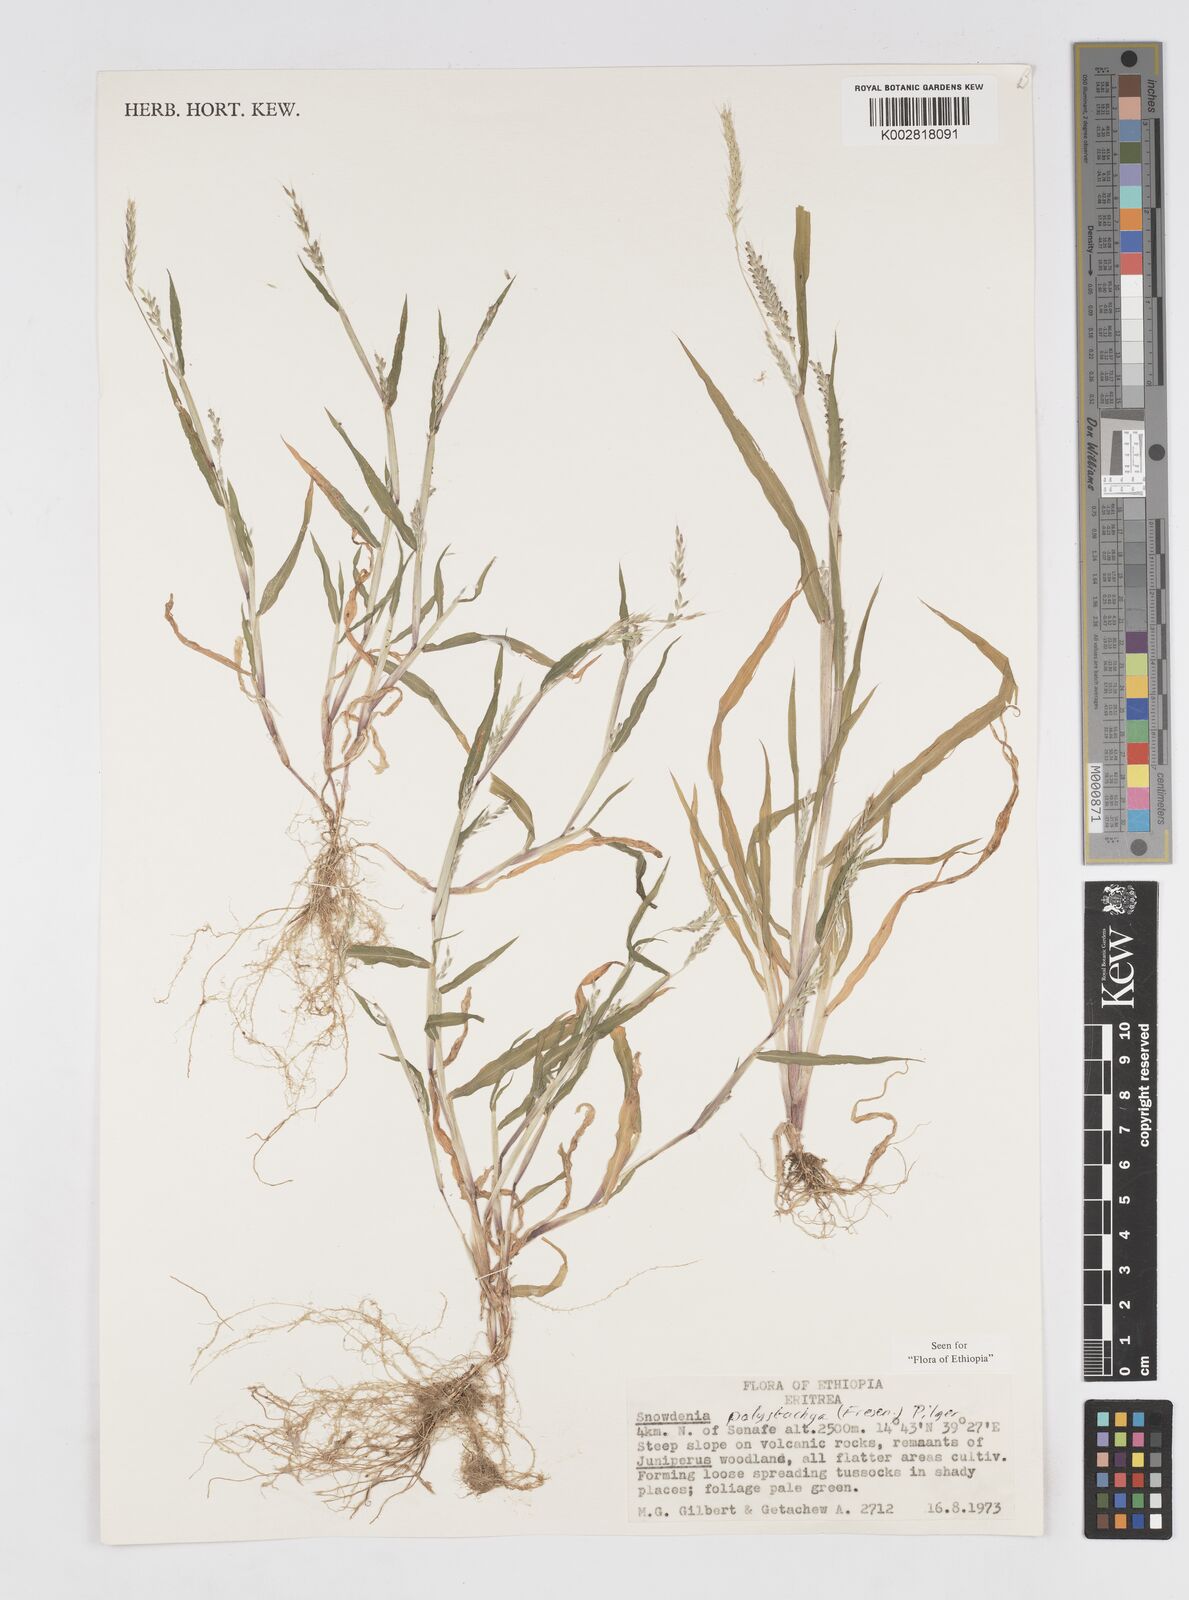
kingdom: Plantae
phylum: Tracheophyta
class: Liliopsida
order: Poales
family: Poaceae
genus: Snowdenia
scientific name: Snowdenia polystachya
